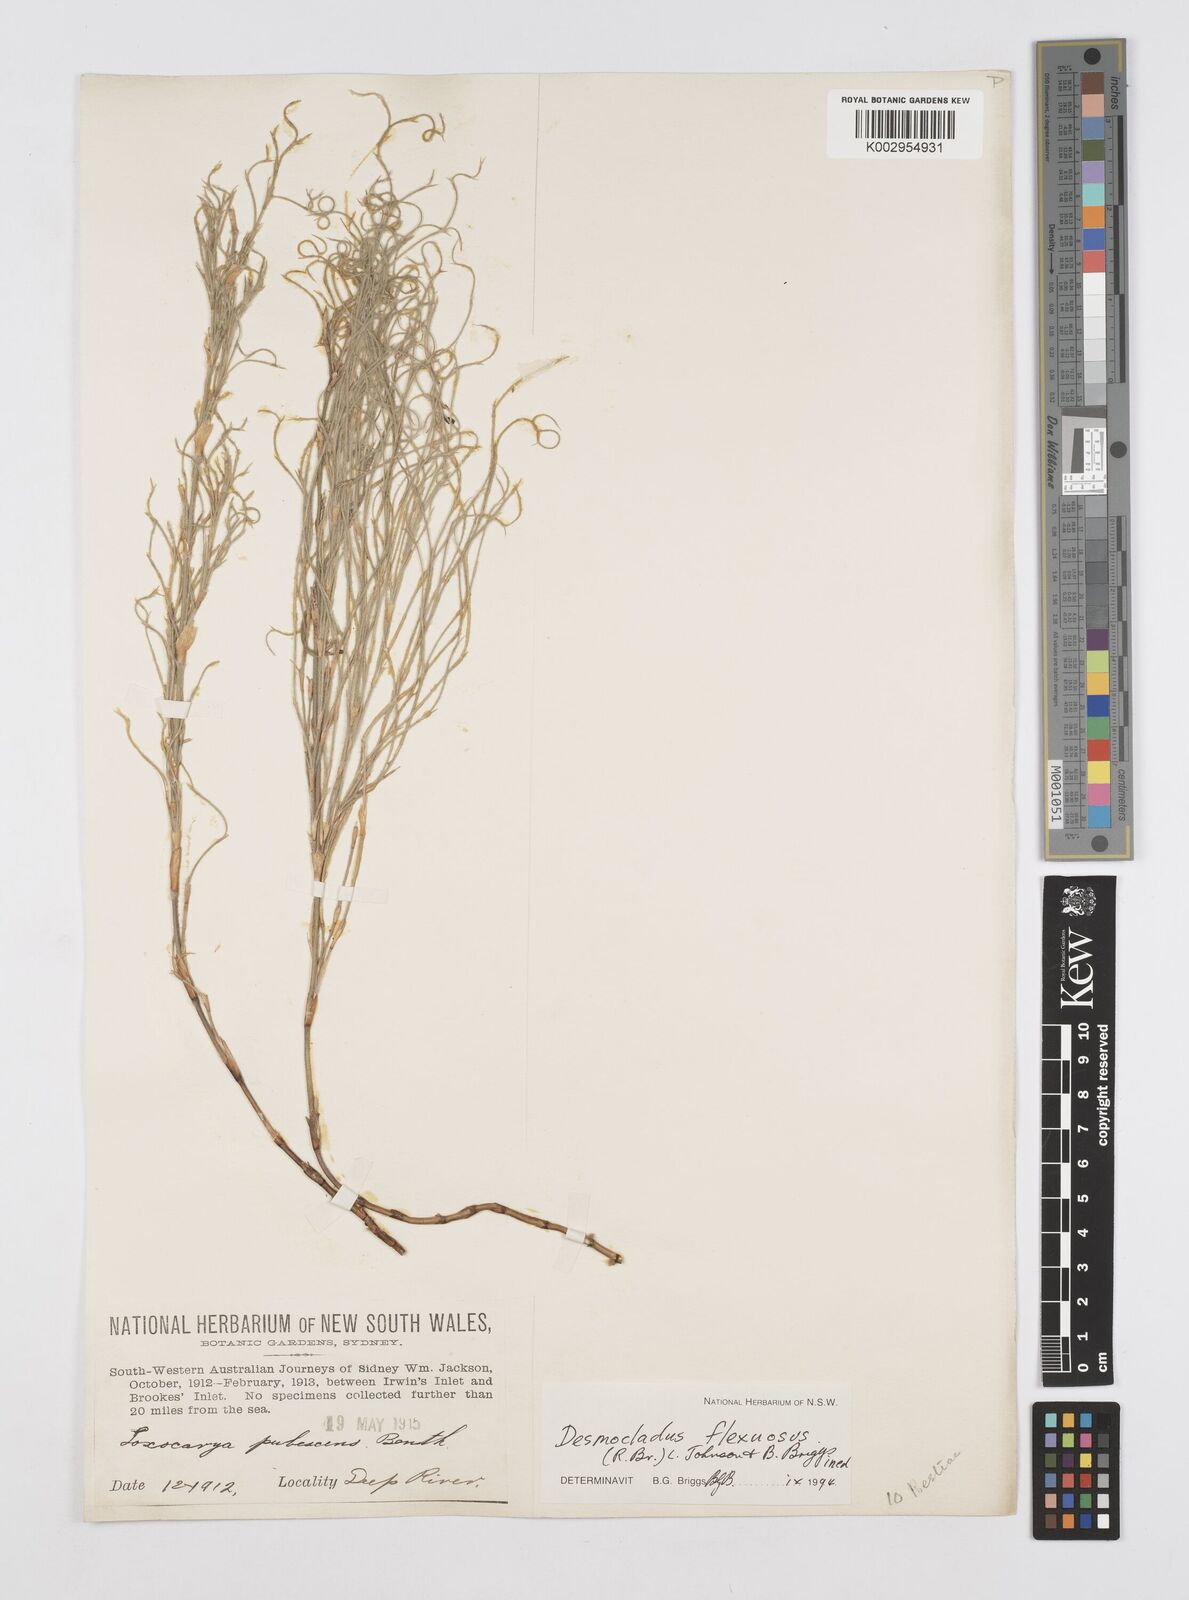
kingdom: Plantae
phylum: Tracheophyta
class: Liliopsida
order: Poales
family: Restionaceae
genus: Desmocladus
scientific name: Desmocladus flexuosus
